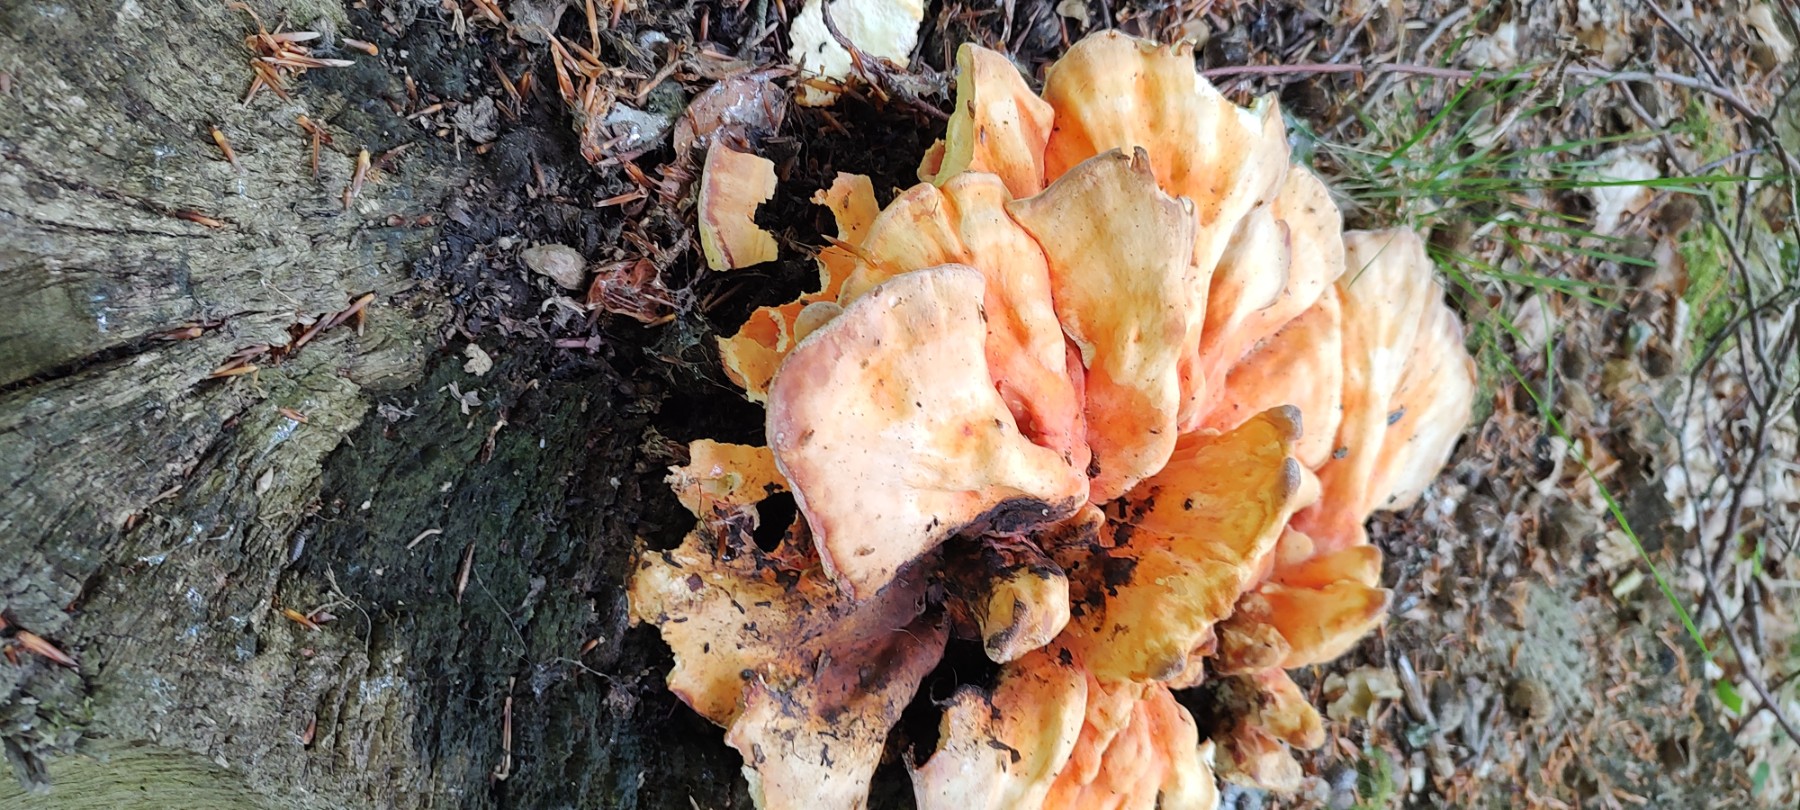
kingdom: Fungi
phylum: Basidiomycota
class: Agaricomycetes
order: Polyporales
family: Laetiporaceae
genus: Laetiporus
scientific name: Laetiporus sulphureus
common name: svovlporesvamp
